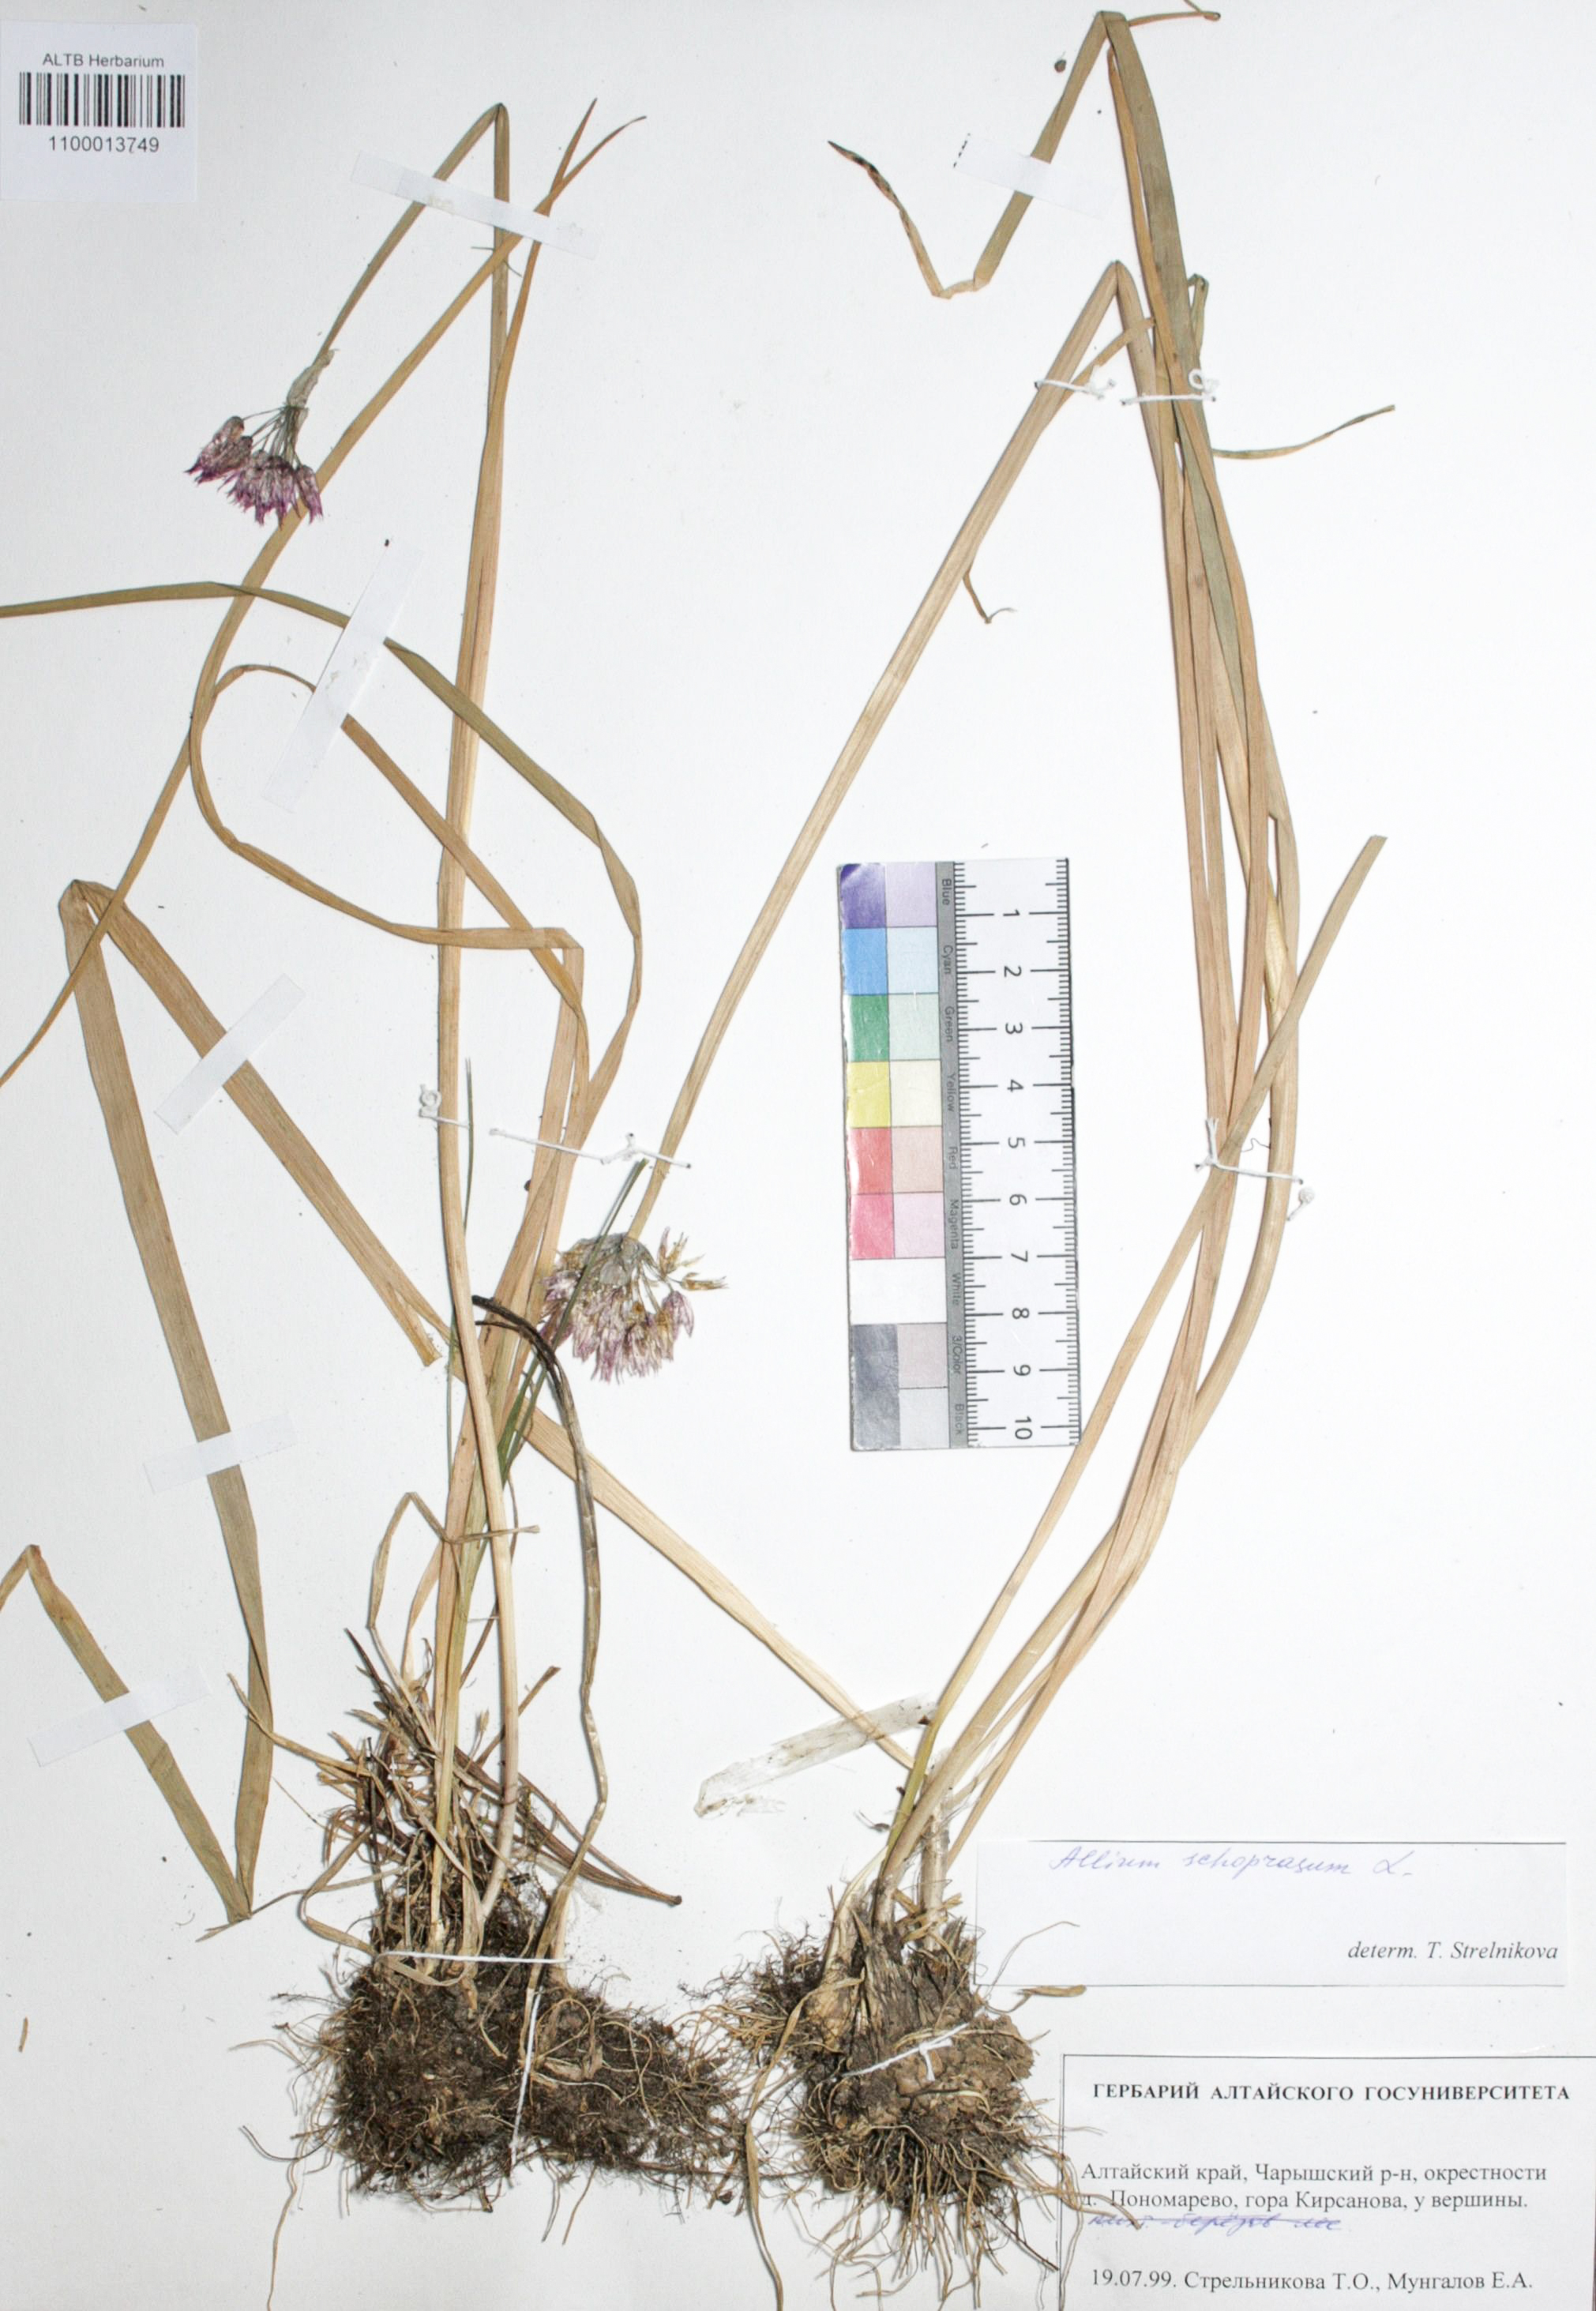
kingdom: Plantae
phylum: Tracheophyta
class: Liliopsida
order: Asparagales
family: Amaryllidaceae
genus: Allium
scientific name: Allium schoenoprasum
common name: Chives
